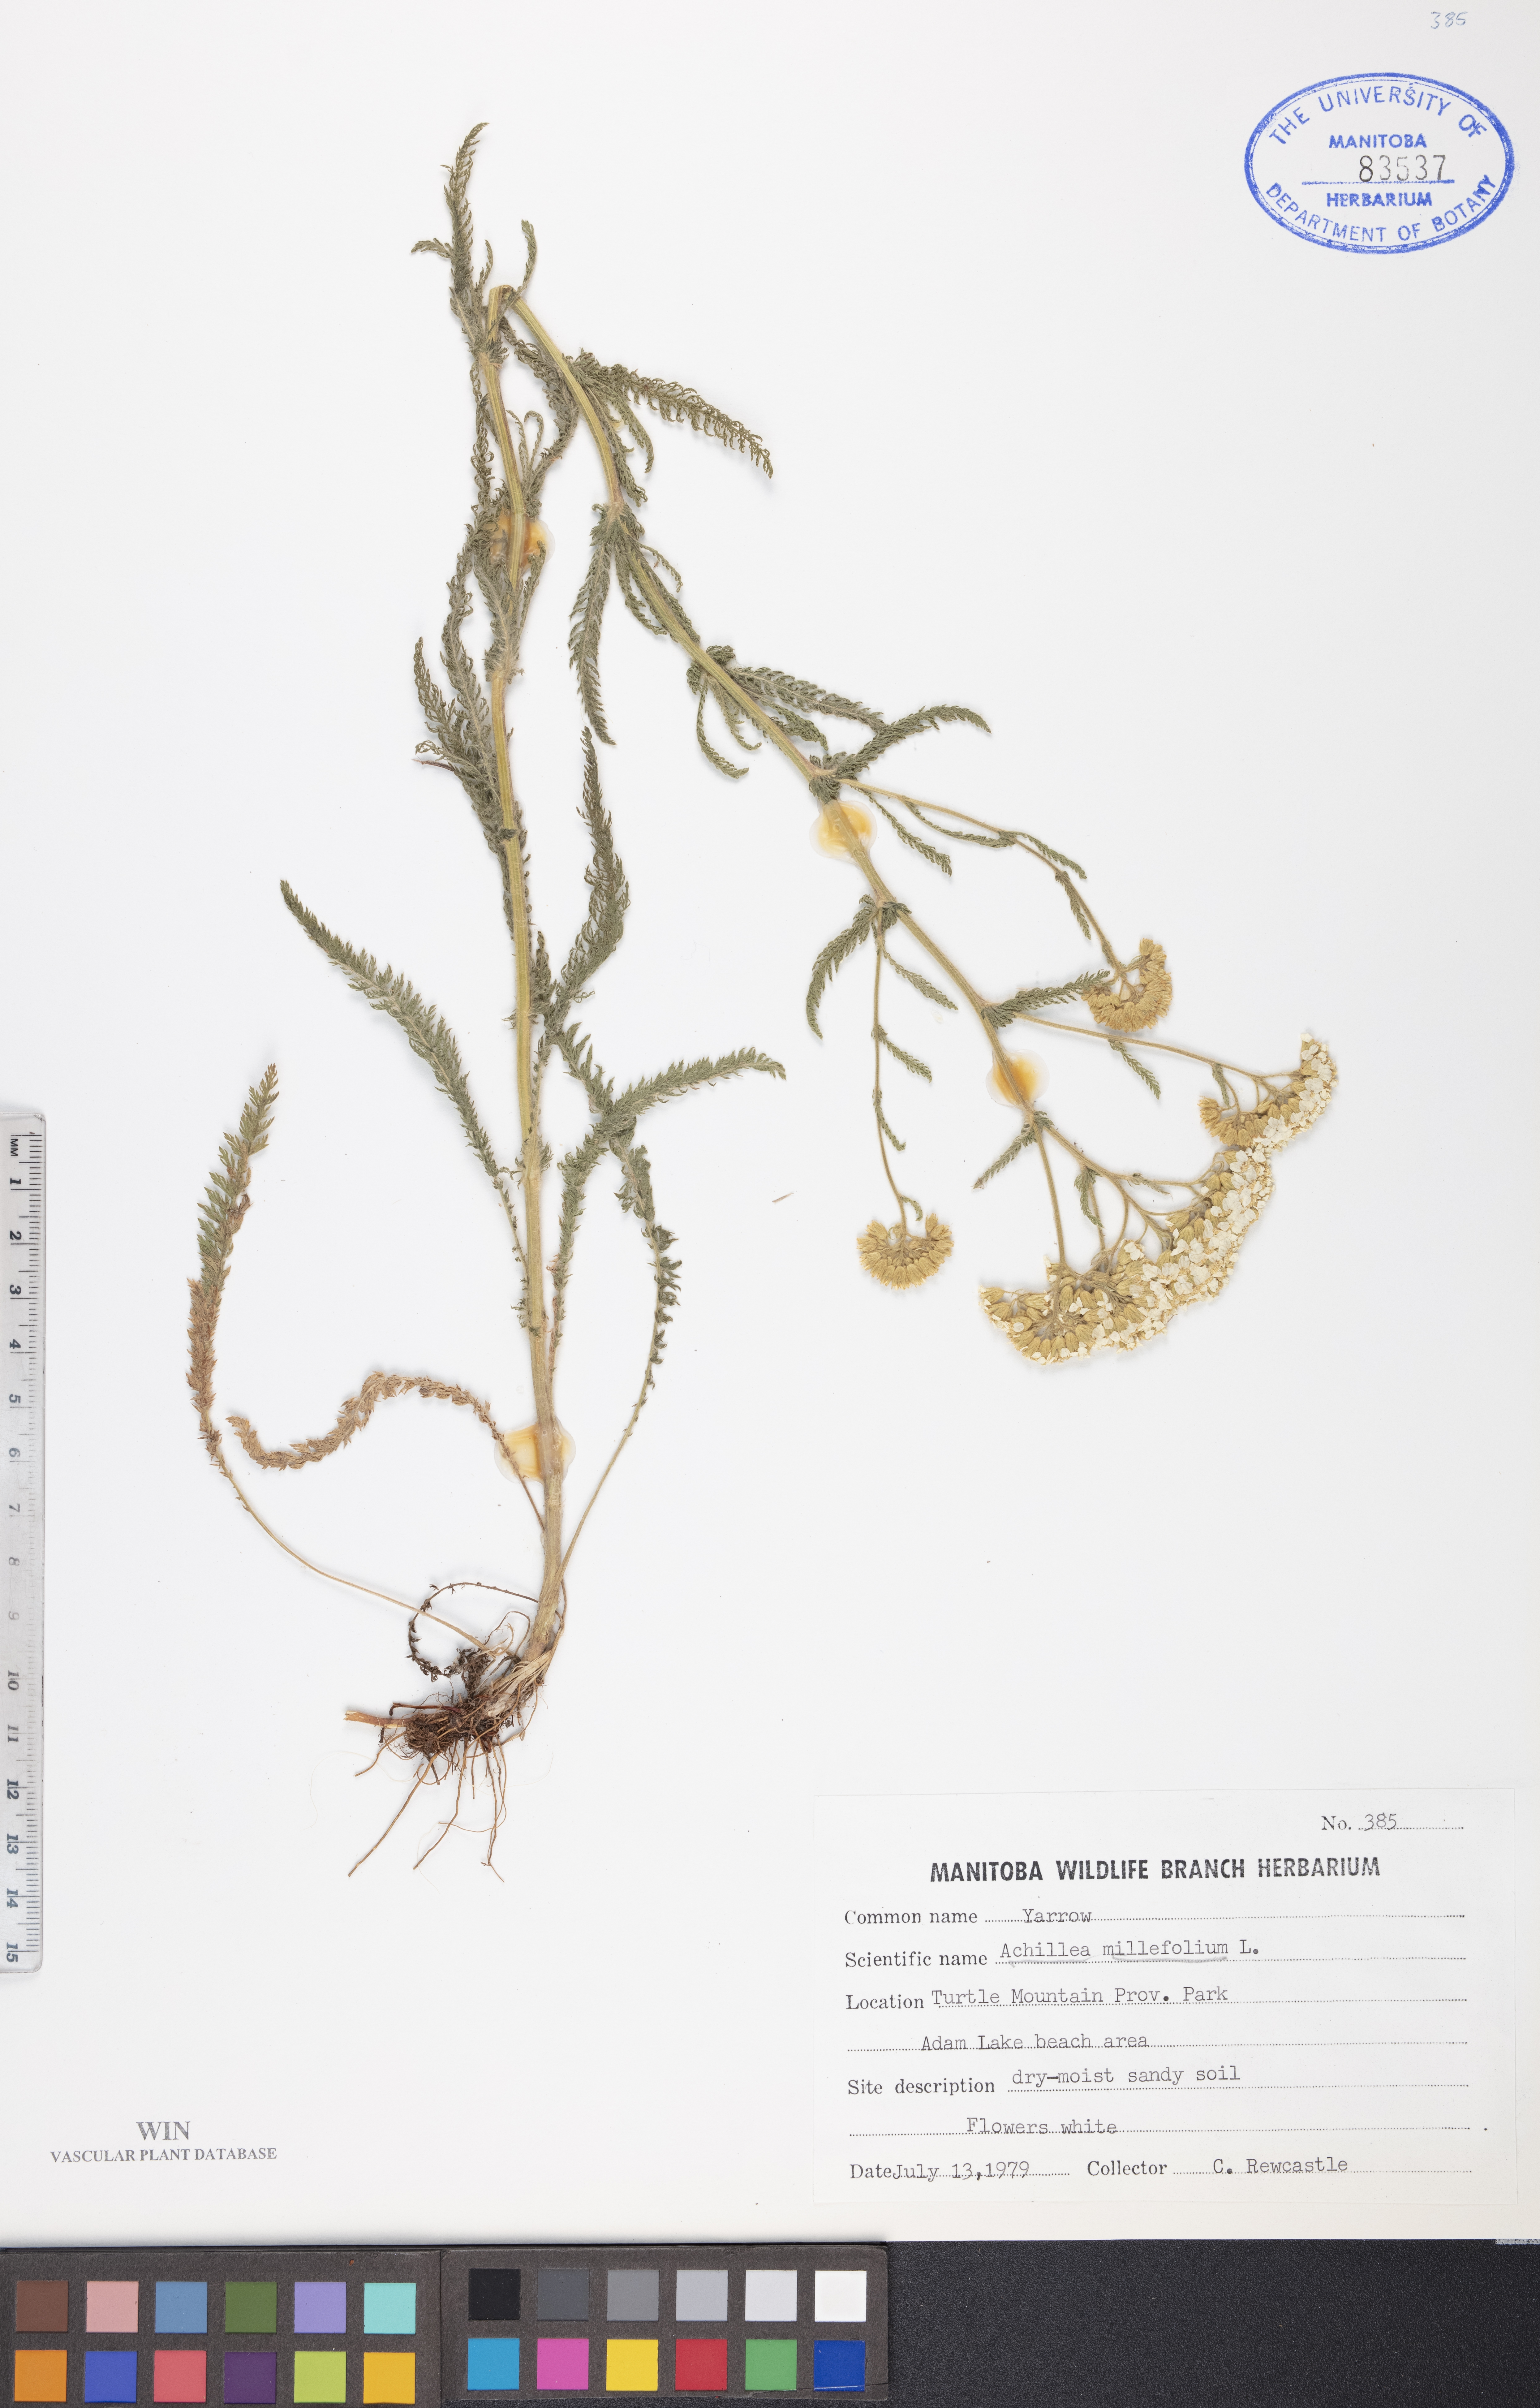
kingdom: Plantae
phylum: Tracheophyta
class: Magnoliopsida
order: Asterales
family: Asteraceae
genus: Achillea
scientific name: Achillea millefolium
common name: Yarrow
